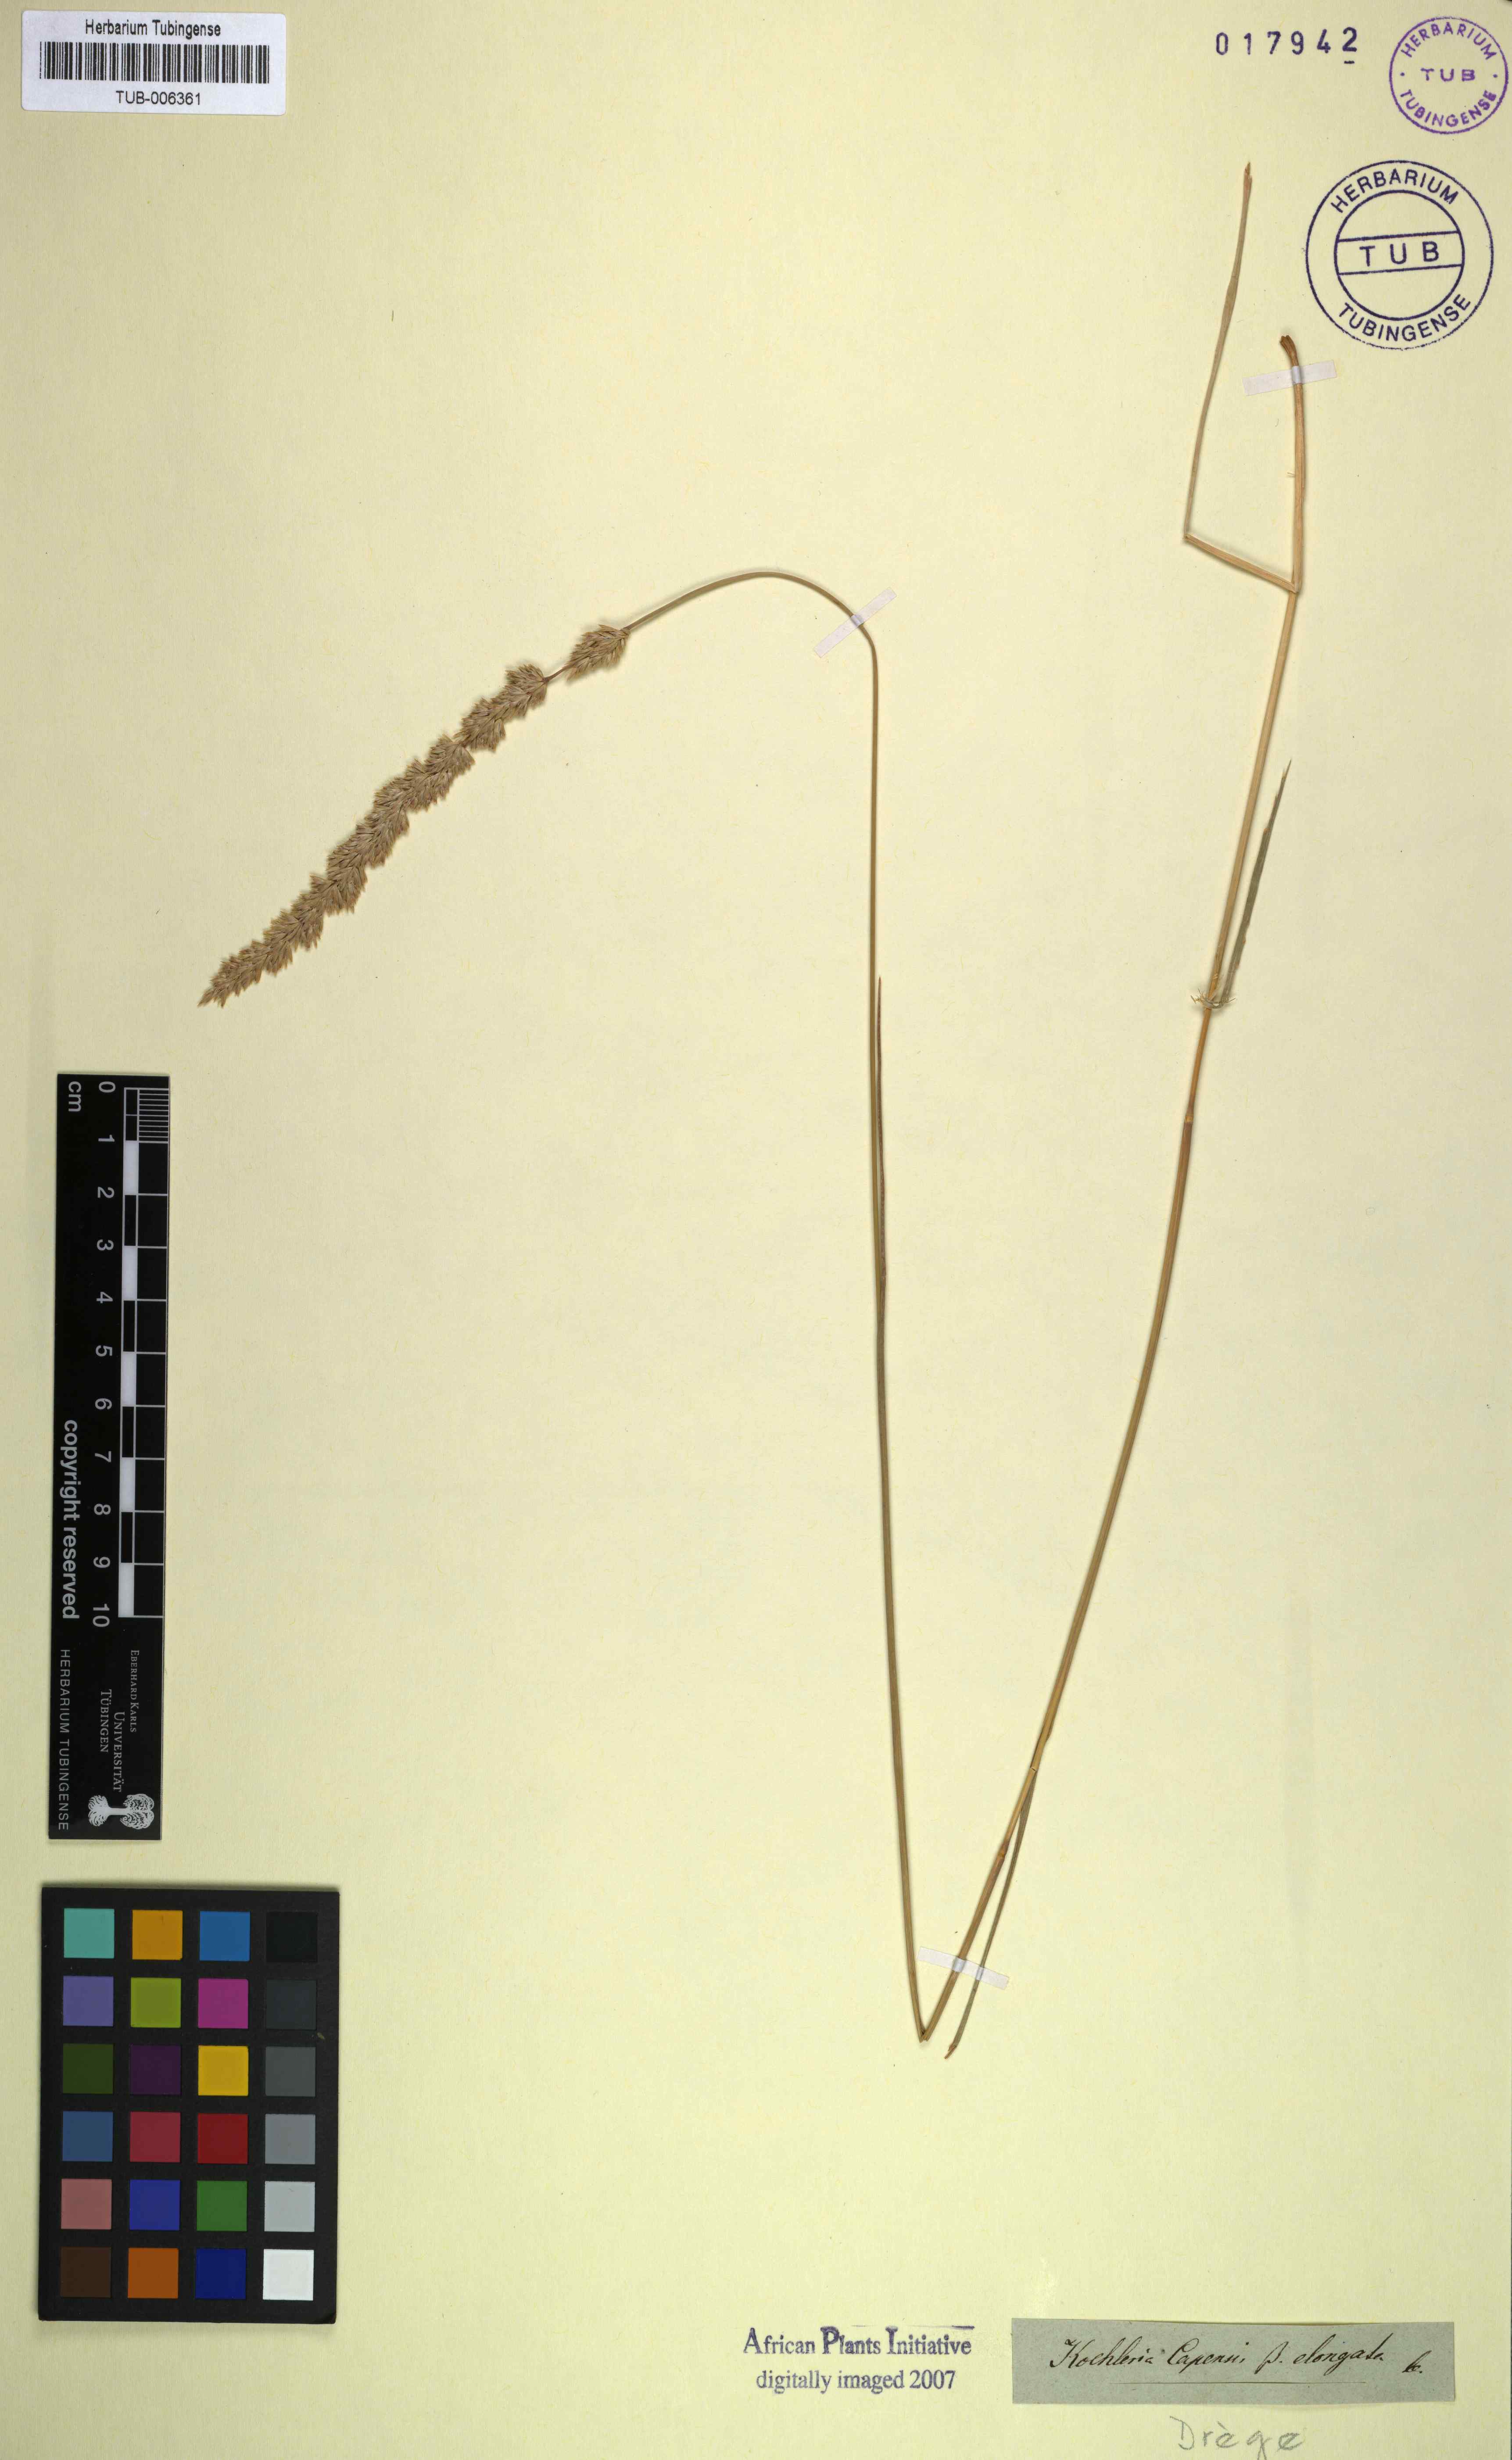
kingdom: Plantae
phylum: Tracheophyta
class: Liliopsida
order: Poales
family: Poaceae
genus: Koeleria
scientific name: Koeleria capensis
